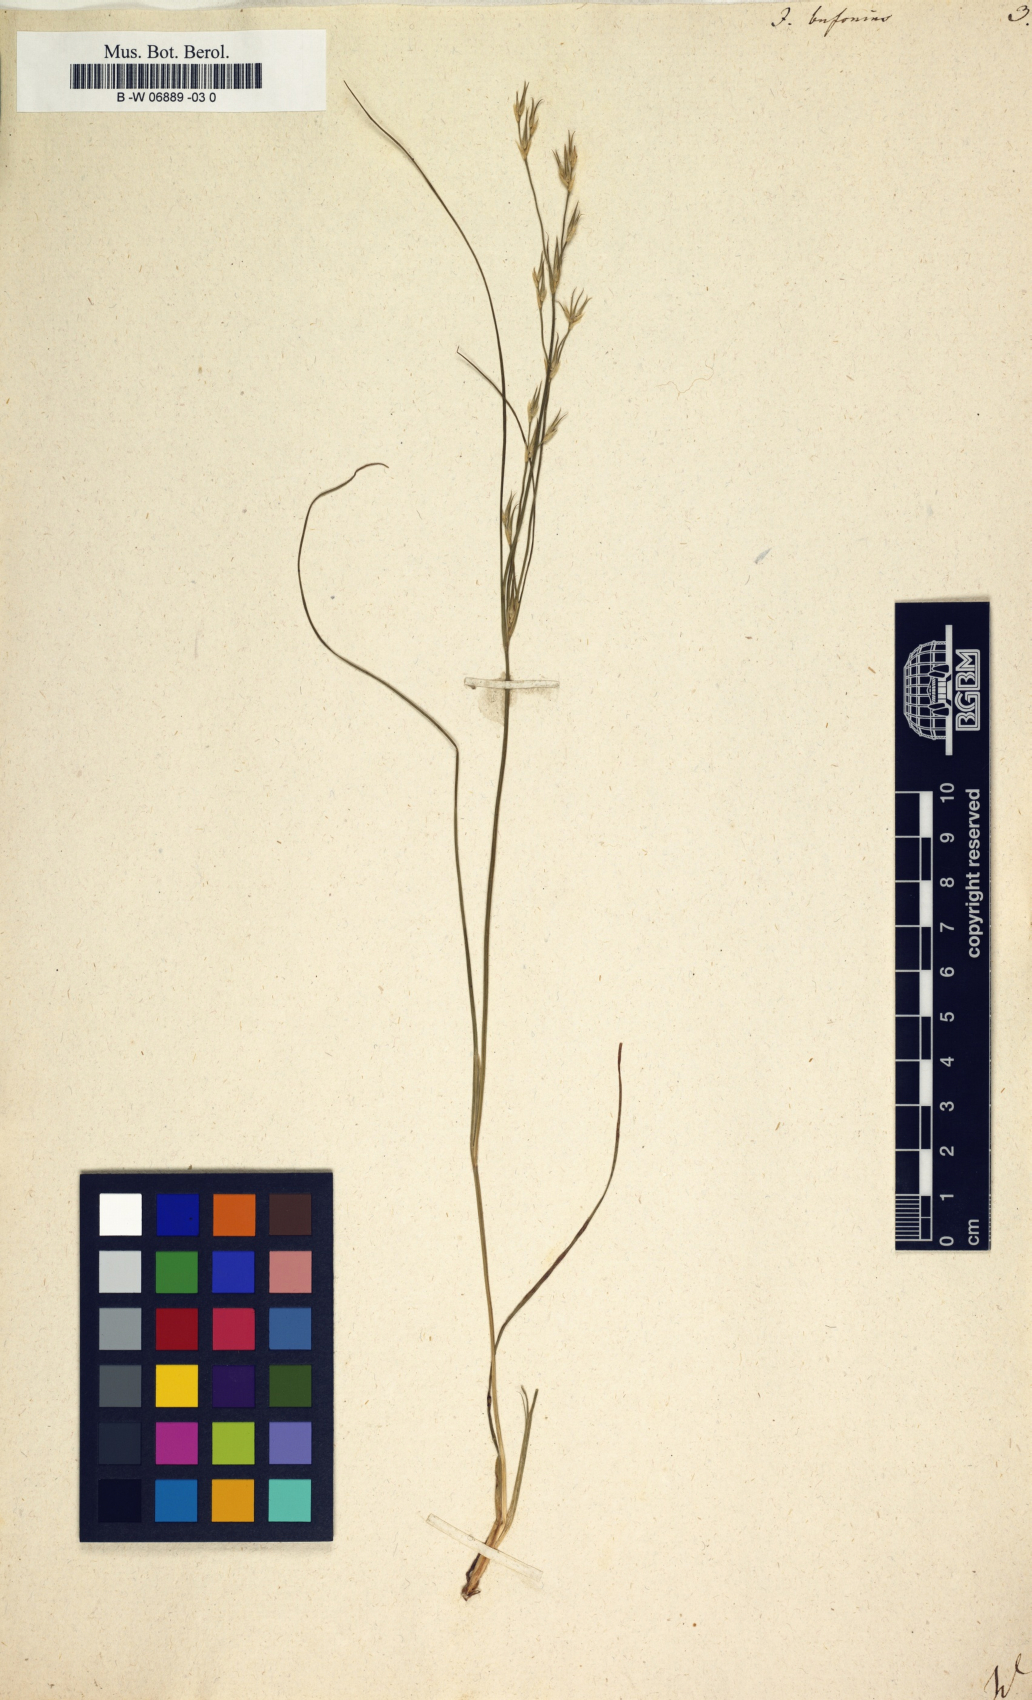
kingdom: Plantae
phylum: Tracheophyta
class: Liliopsida
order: Poales
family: Juncaceae
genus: Juncus
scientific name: Juncus bufonius
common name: Toad rush
